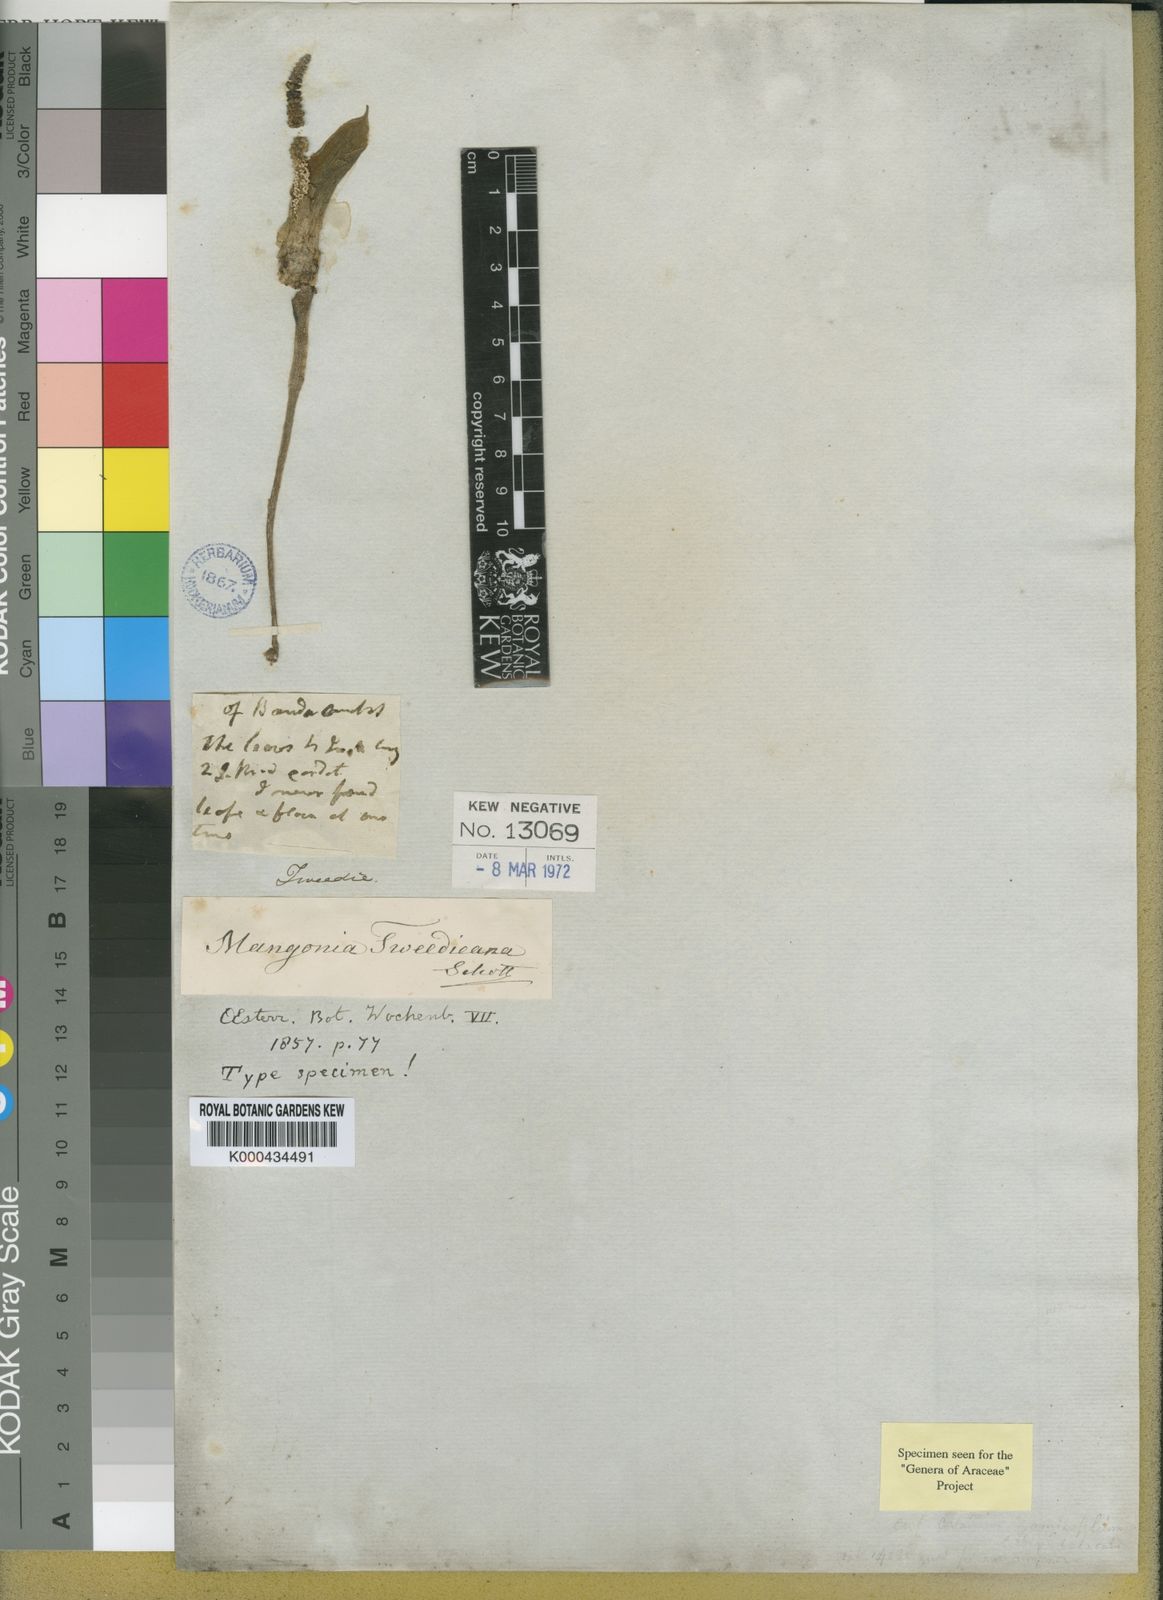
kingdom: Plantae
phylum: Tracheophyta
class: Liliopsida
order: Alismatales
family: Araceae
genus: Mangonia
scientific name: Mangonia
